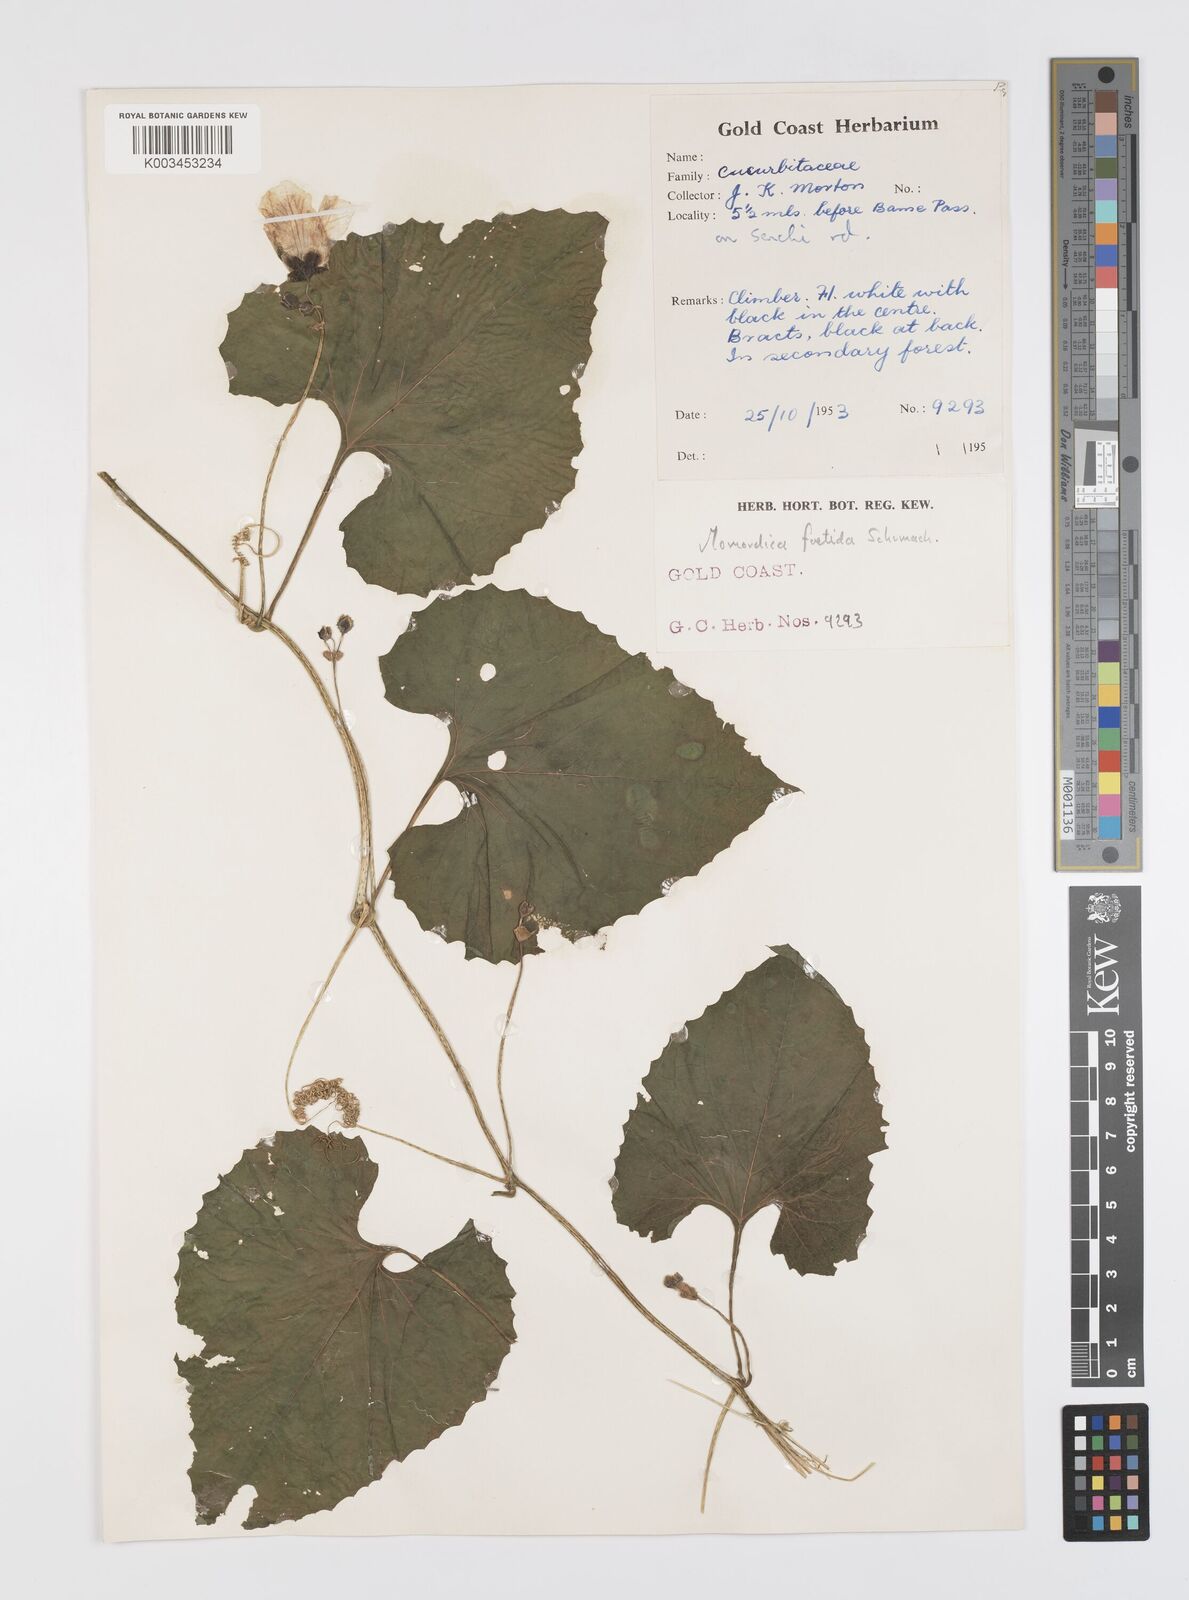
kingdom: Plantae
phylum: Tracheophyta
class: Magnoliopsida
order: Cucurbitales
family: Cucurbitaceae
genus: Momordica
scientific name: Momordica foetida
